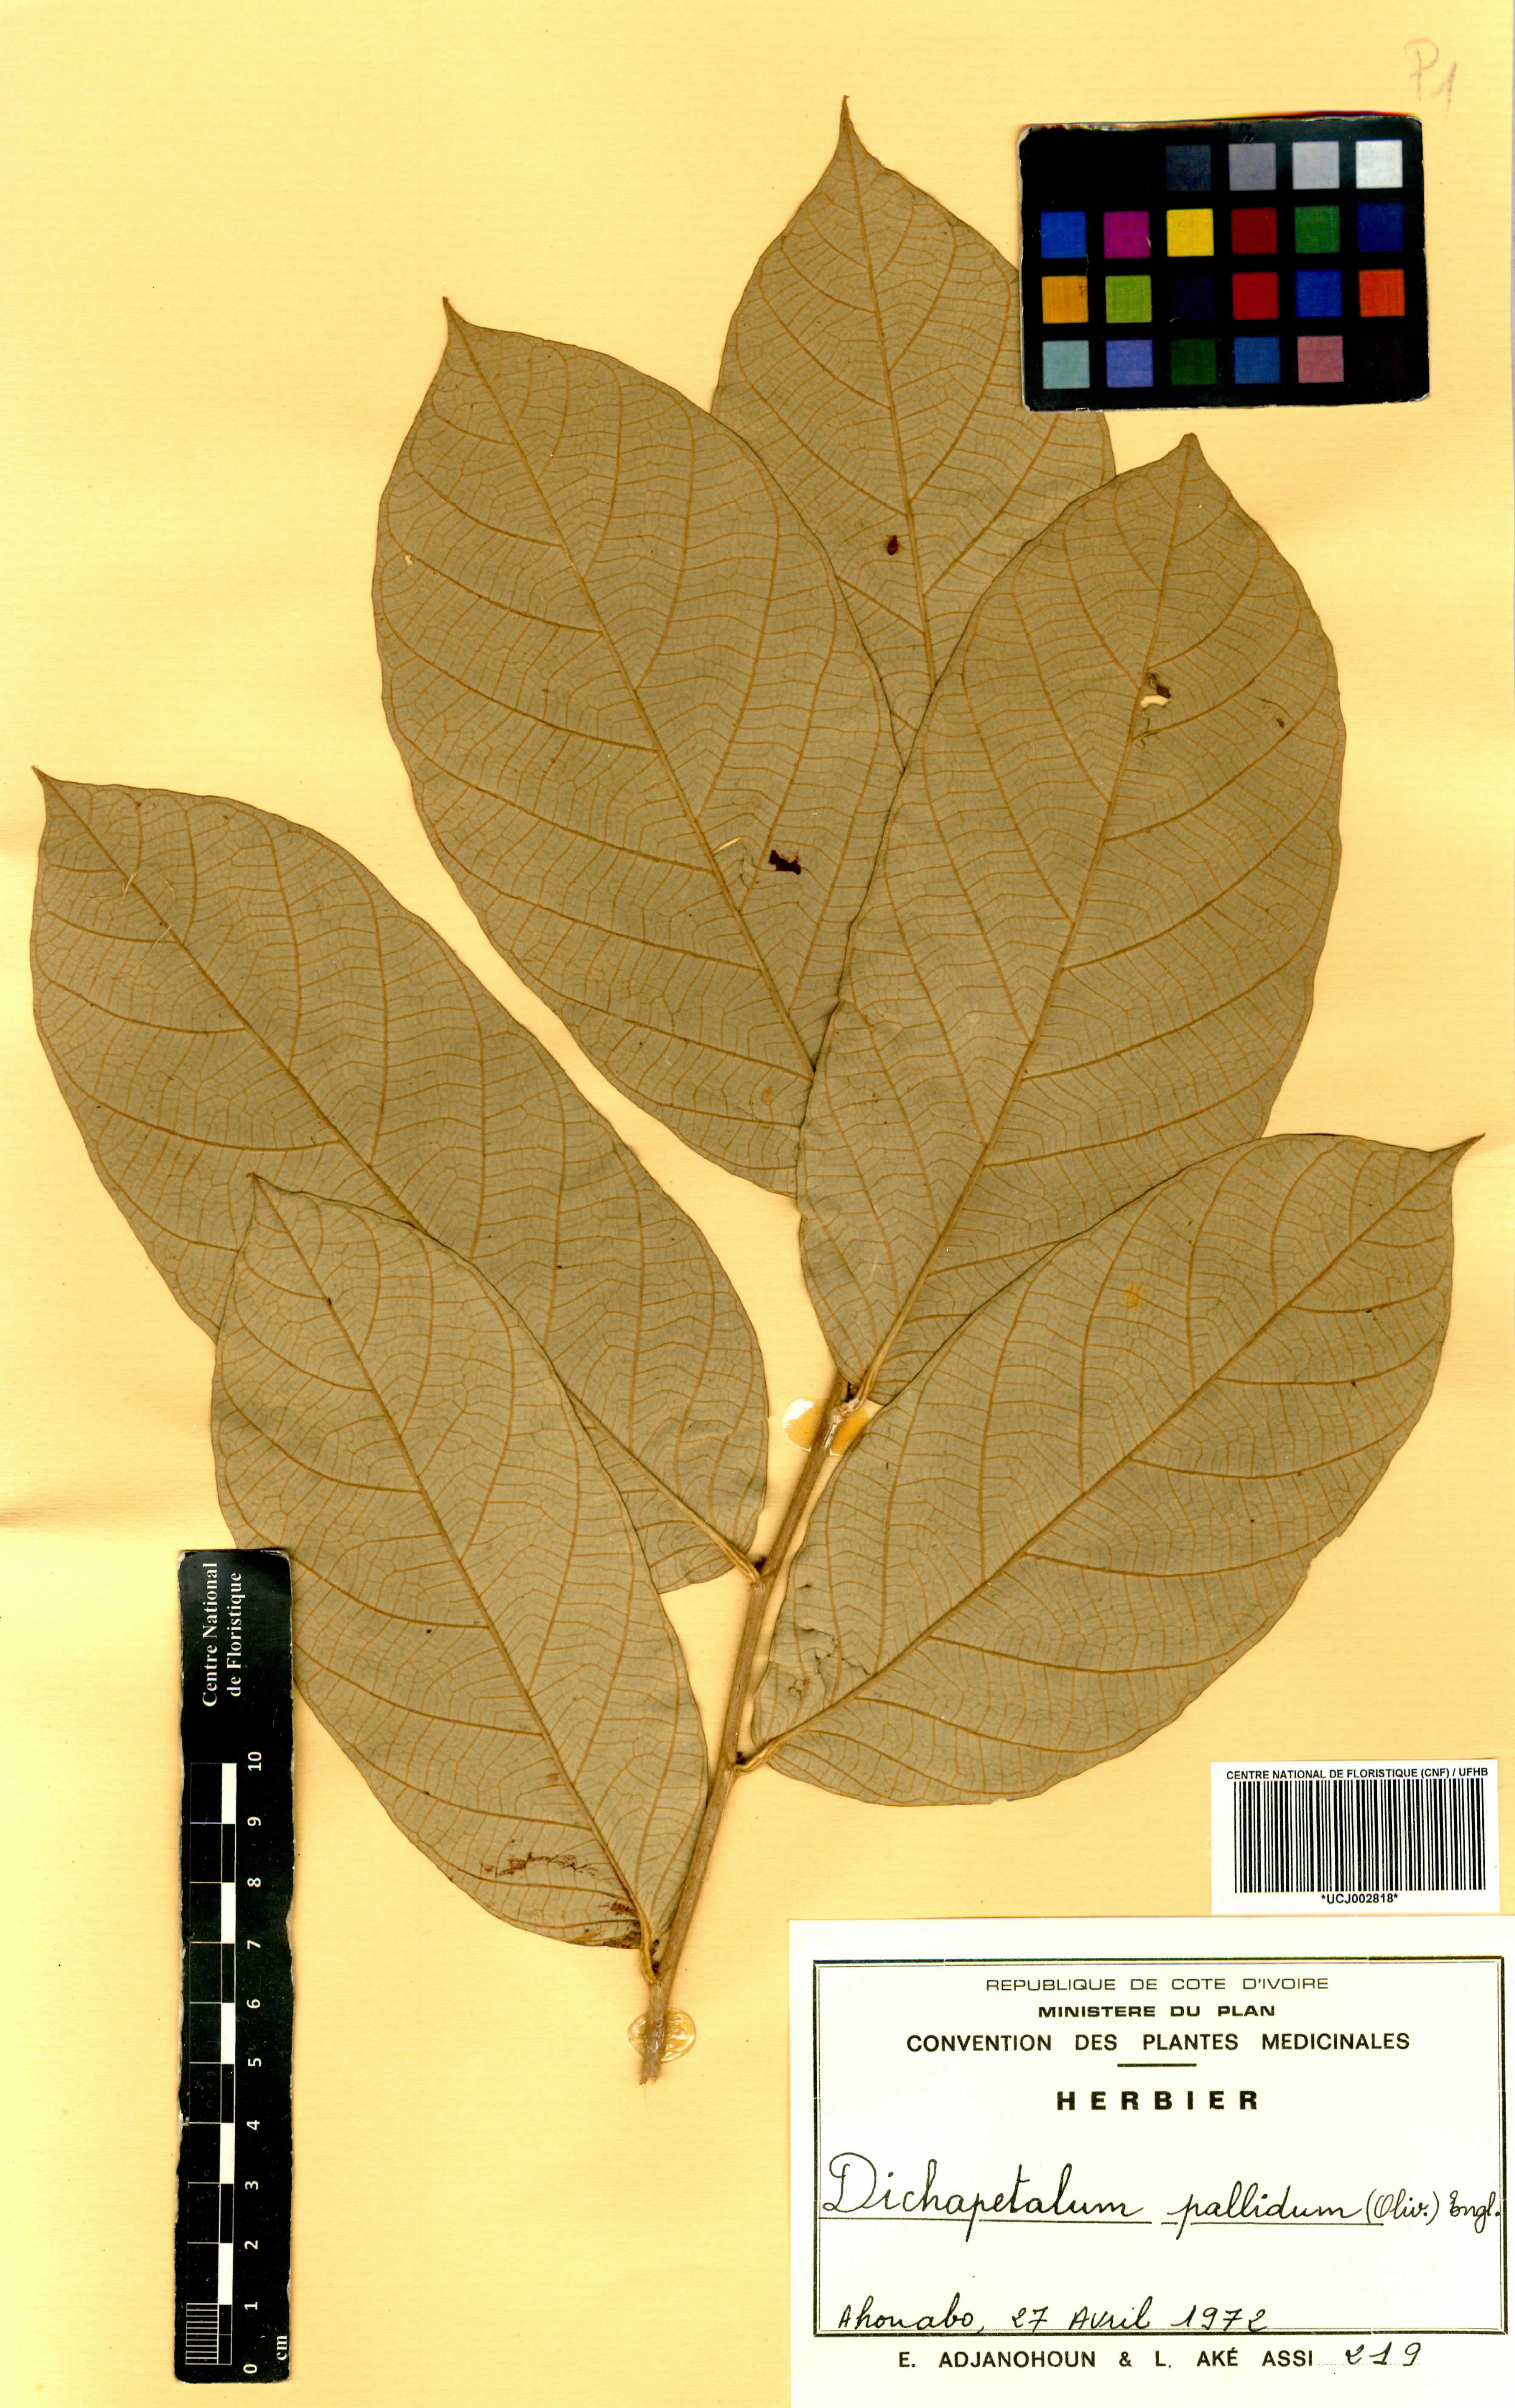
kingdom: Plantae
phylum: Tracheophyta
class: Magnoliopsida
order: Malpighiales
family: Dichapetalaceae
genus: Dichapetalum
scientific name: Dichapetalum pallidum
